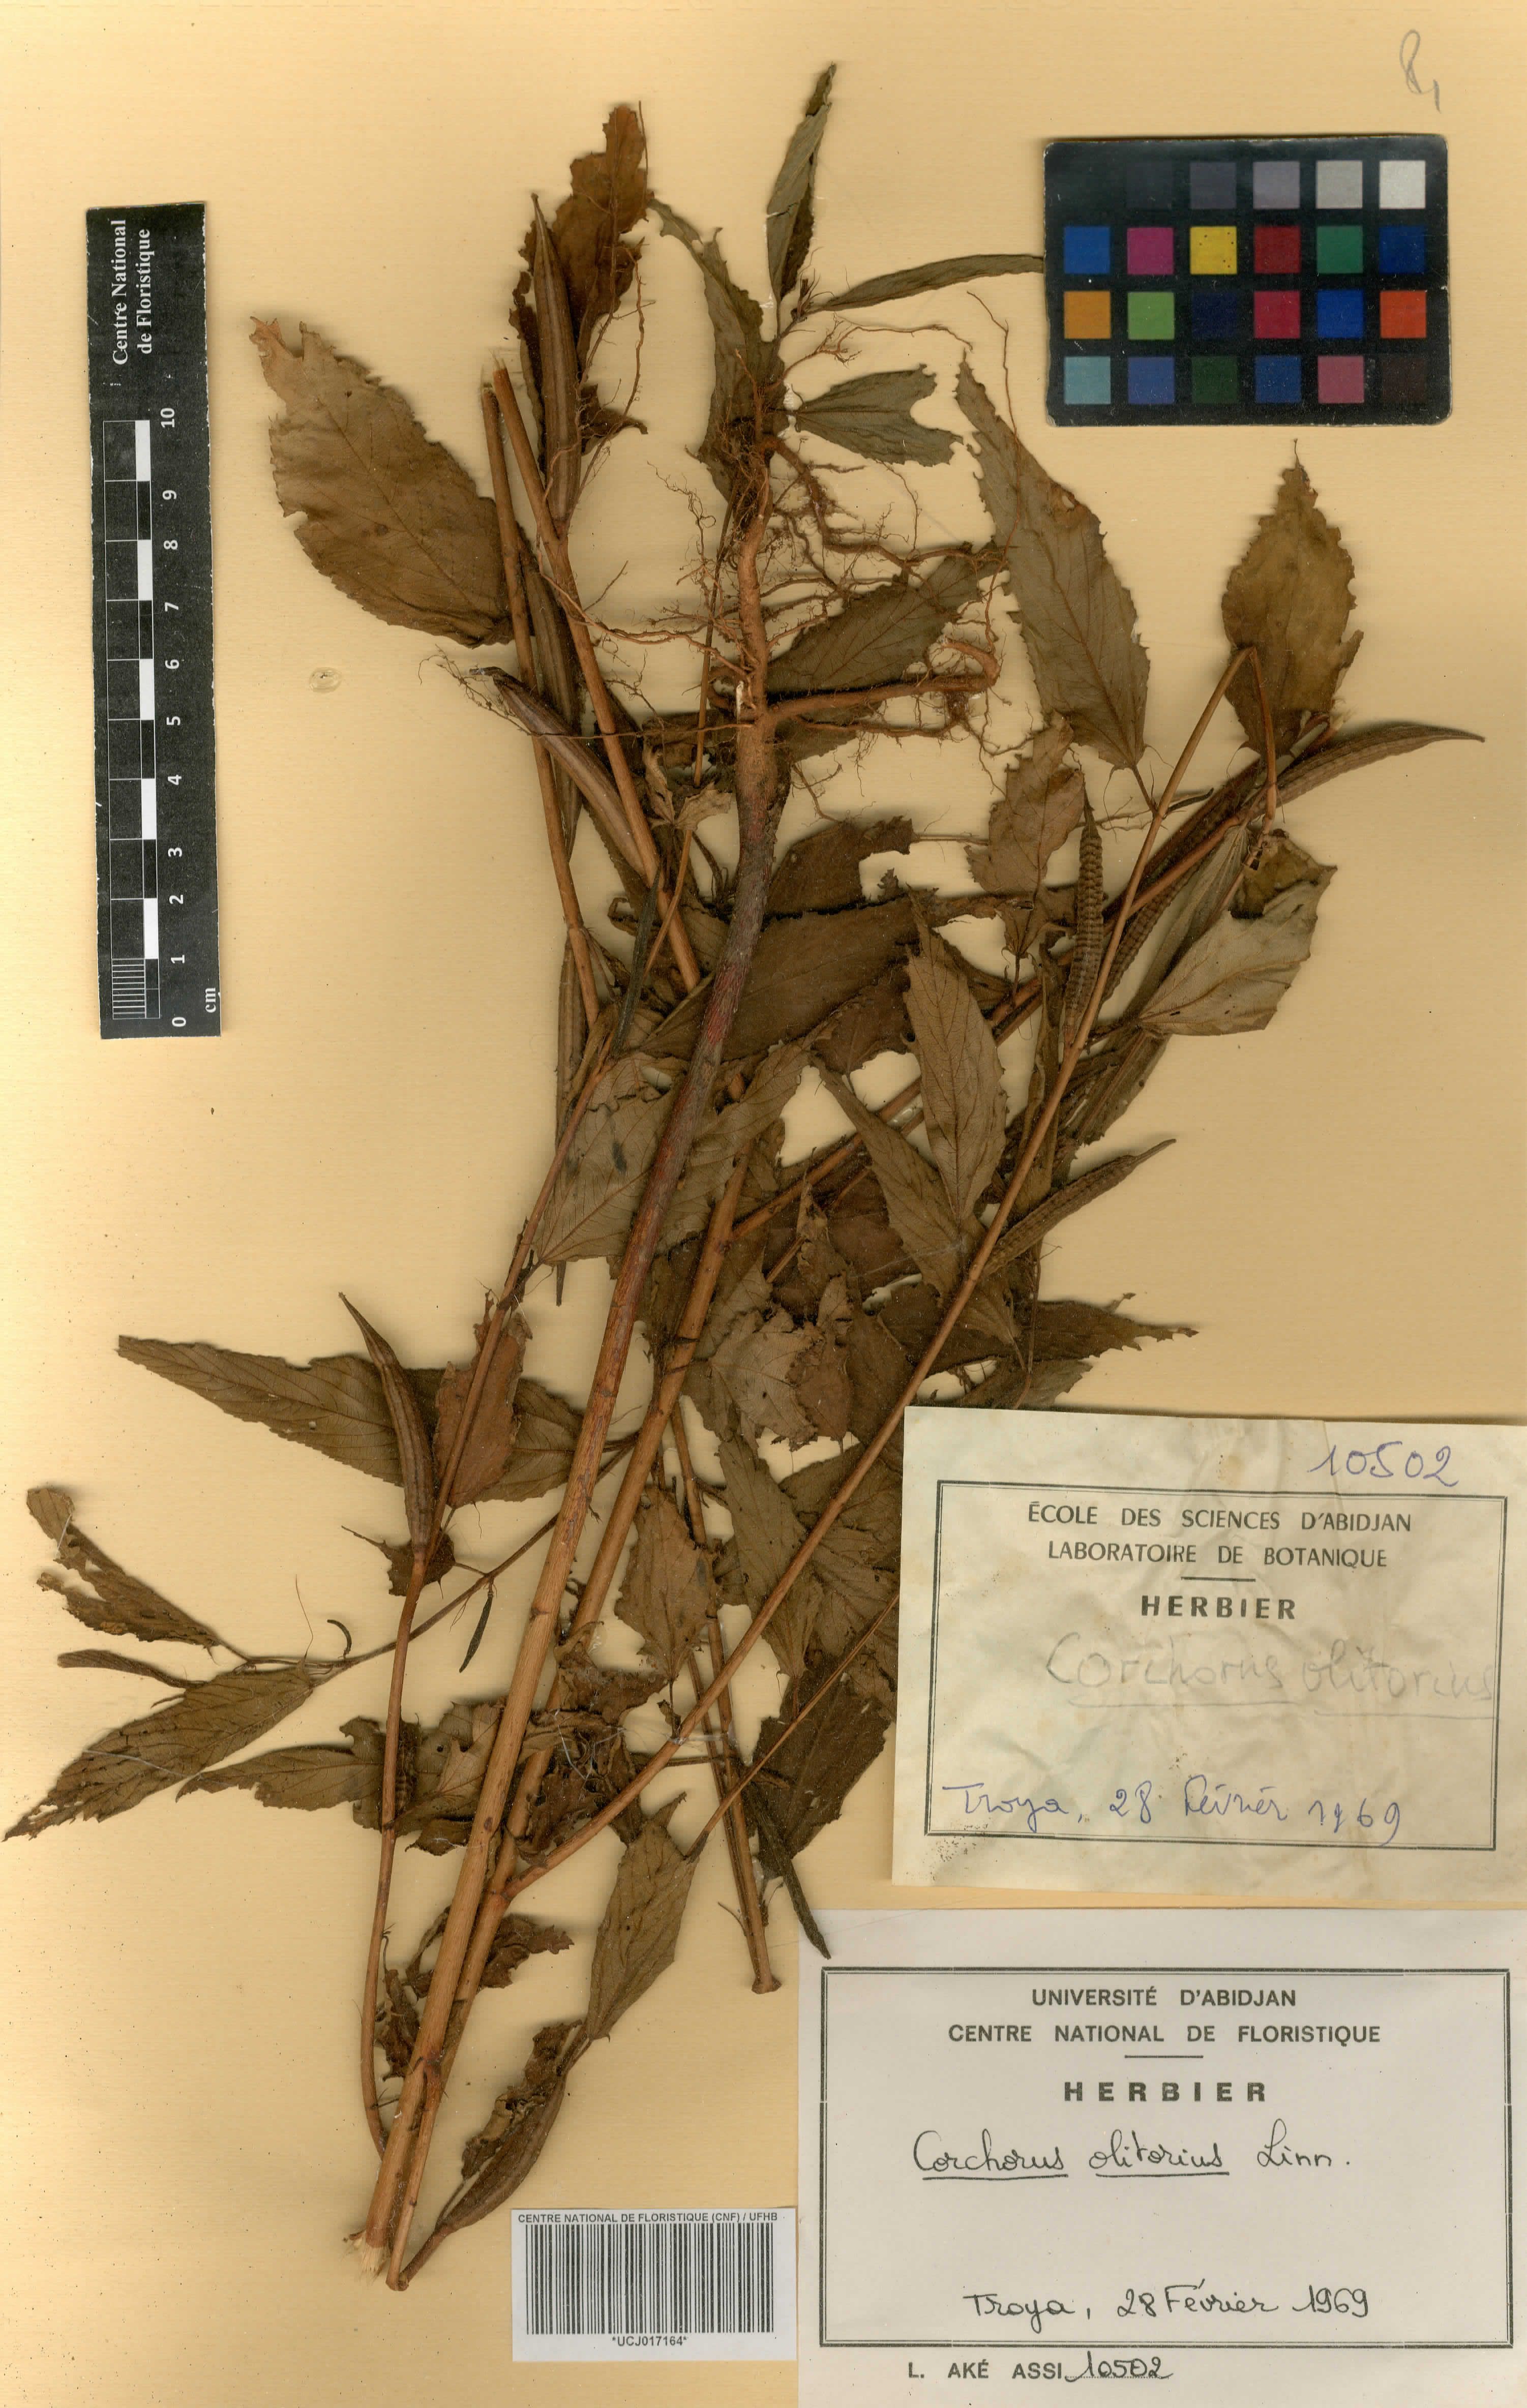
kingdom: Plantae
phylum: Tracheophyta
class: Magnoliopsida
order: Malvales
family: Malvaceae
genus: Corchorus
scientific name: Corchorus olitorius
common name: Tossa jute
